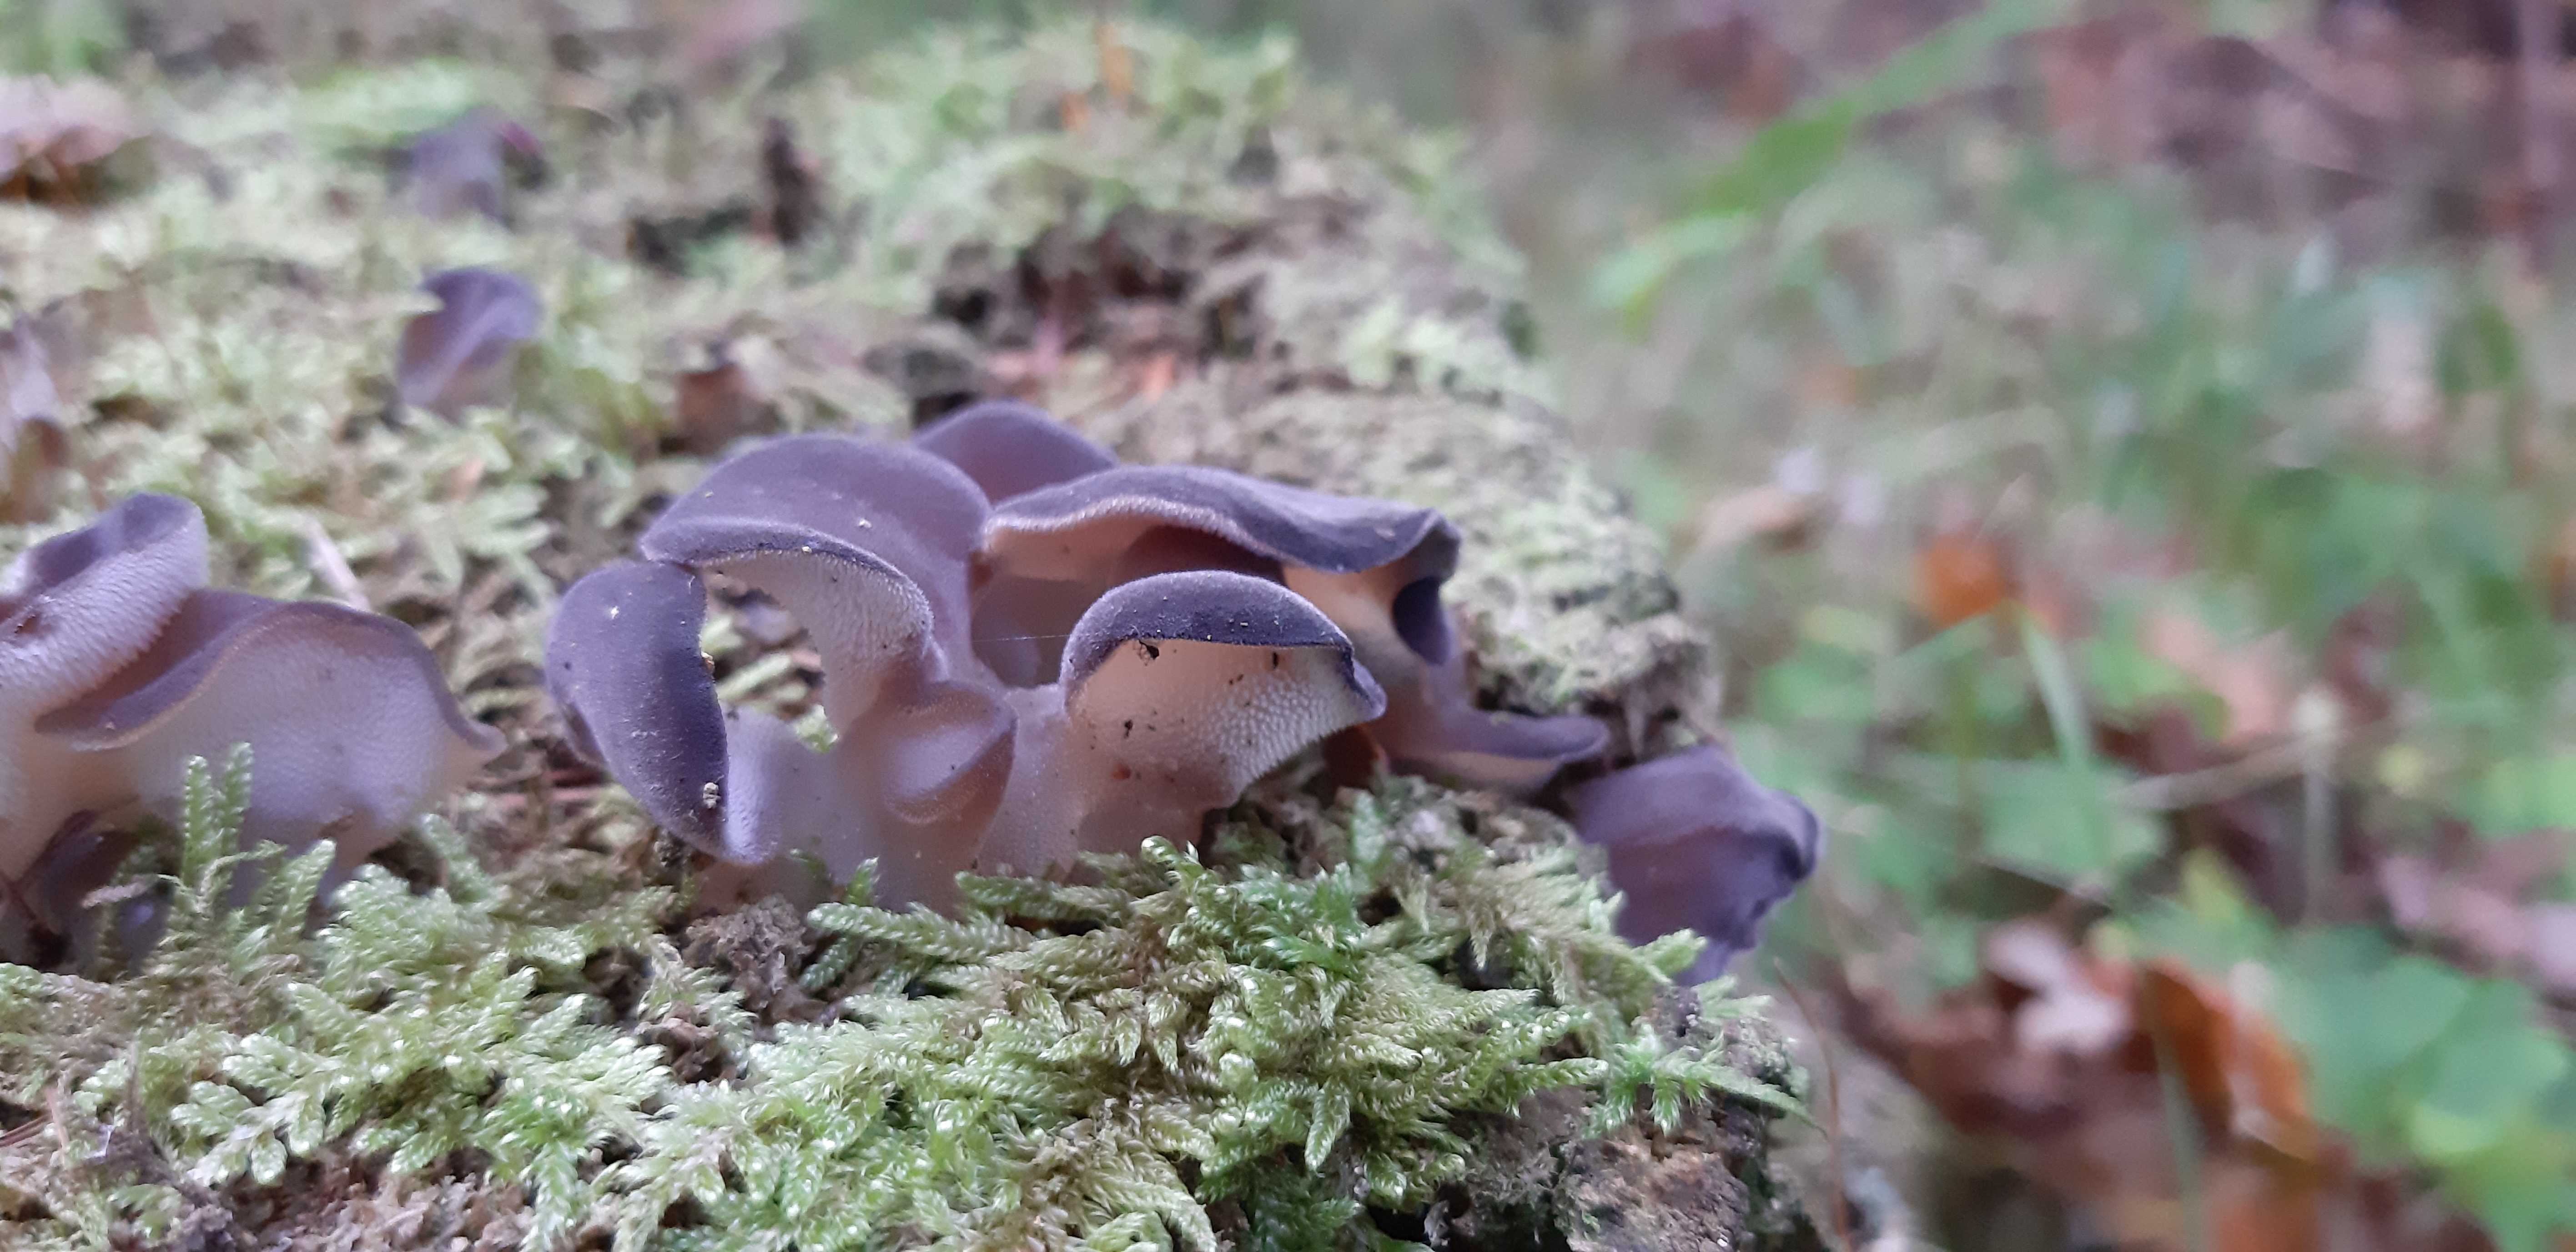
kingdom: Fungi
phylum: Basidiomycota
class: Agaricomycetes
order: Auriculariales
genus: Pseudohydnum
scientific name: Pseudohydnum gelatinosum
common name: bævretand
